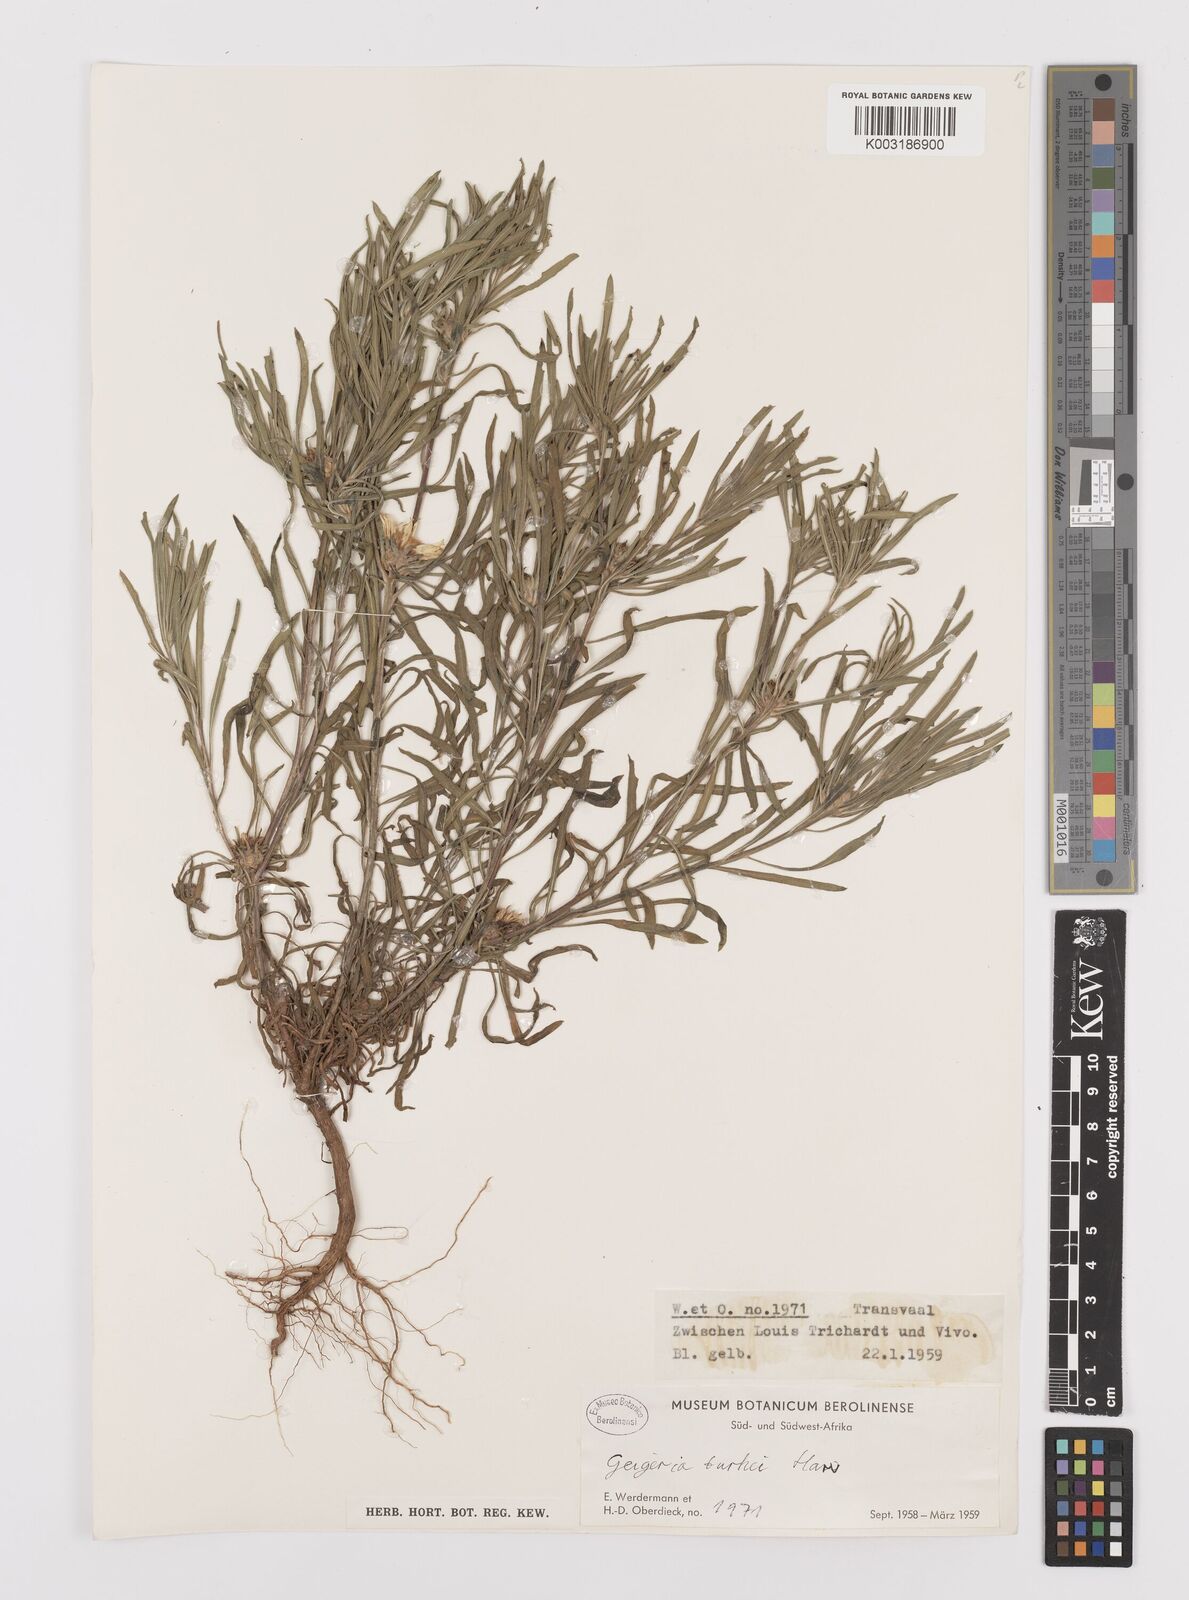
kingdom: Plantae
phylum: Tracheophyta
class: Magnoliopsida
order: Asterales
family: Asteraceae
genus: Geigeria
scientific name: Geigeria burkei
